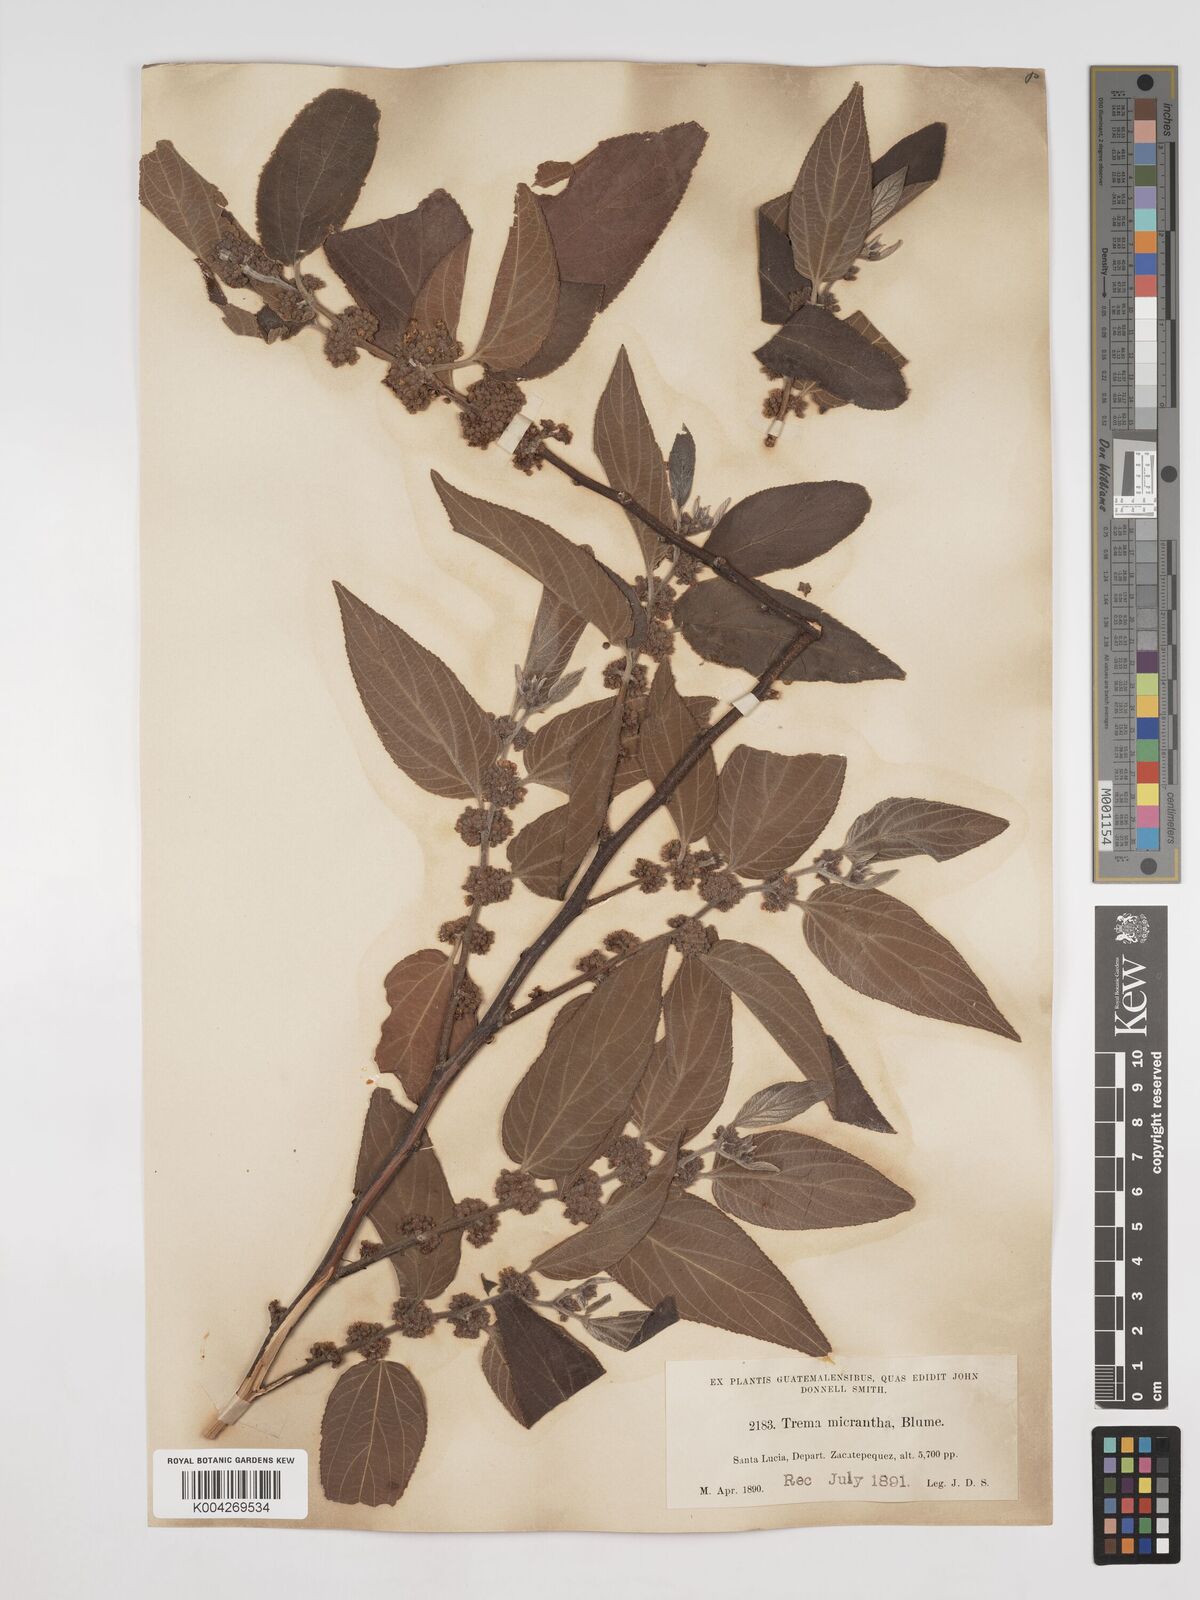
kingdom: Plantae
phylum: Tracheophyta
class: Magnoliopsida
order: Rosales
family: Cannabaceae
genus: Trema
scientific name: Trema micranthum
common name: Jamaican nettletree
